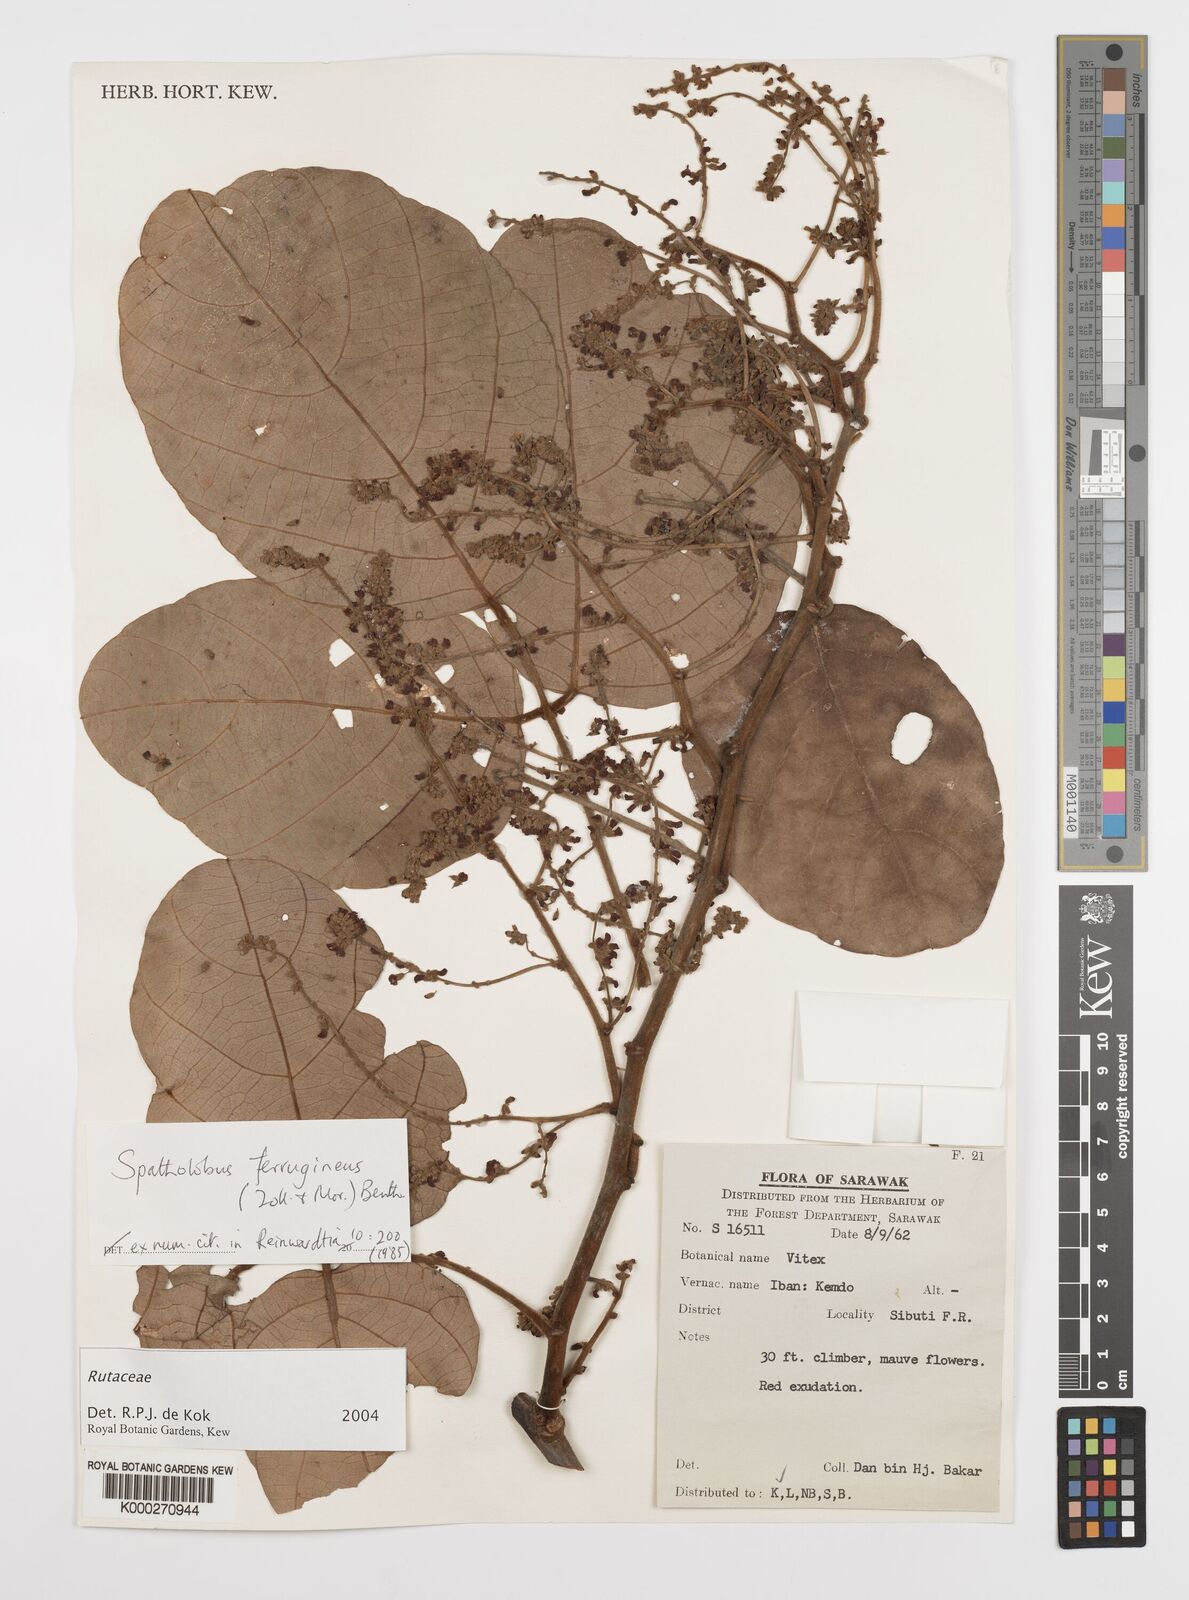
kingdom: Plantae
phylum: Tracheophyta
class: Magnoliopsida
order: Fabales
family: Fabaceae
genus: Spatholobus
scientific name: Spatholobus ferrugineus
